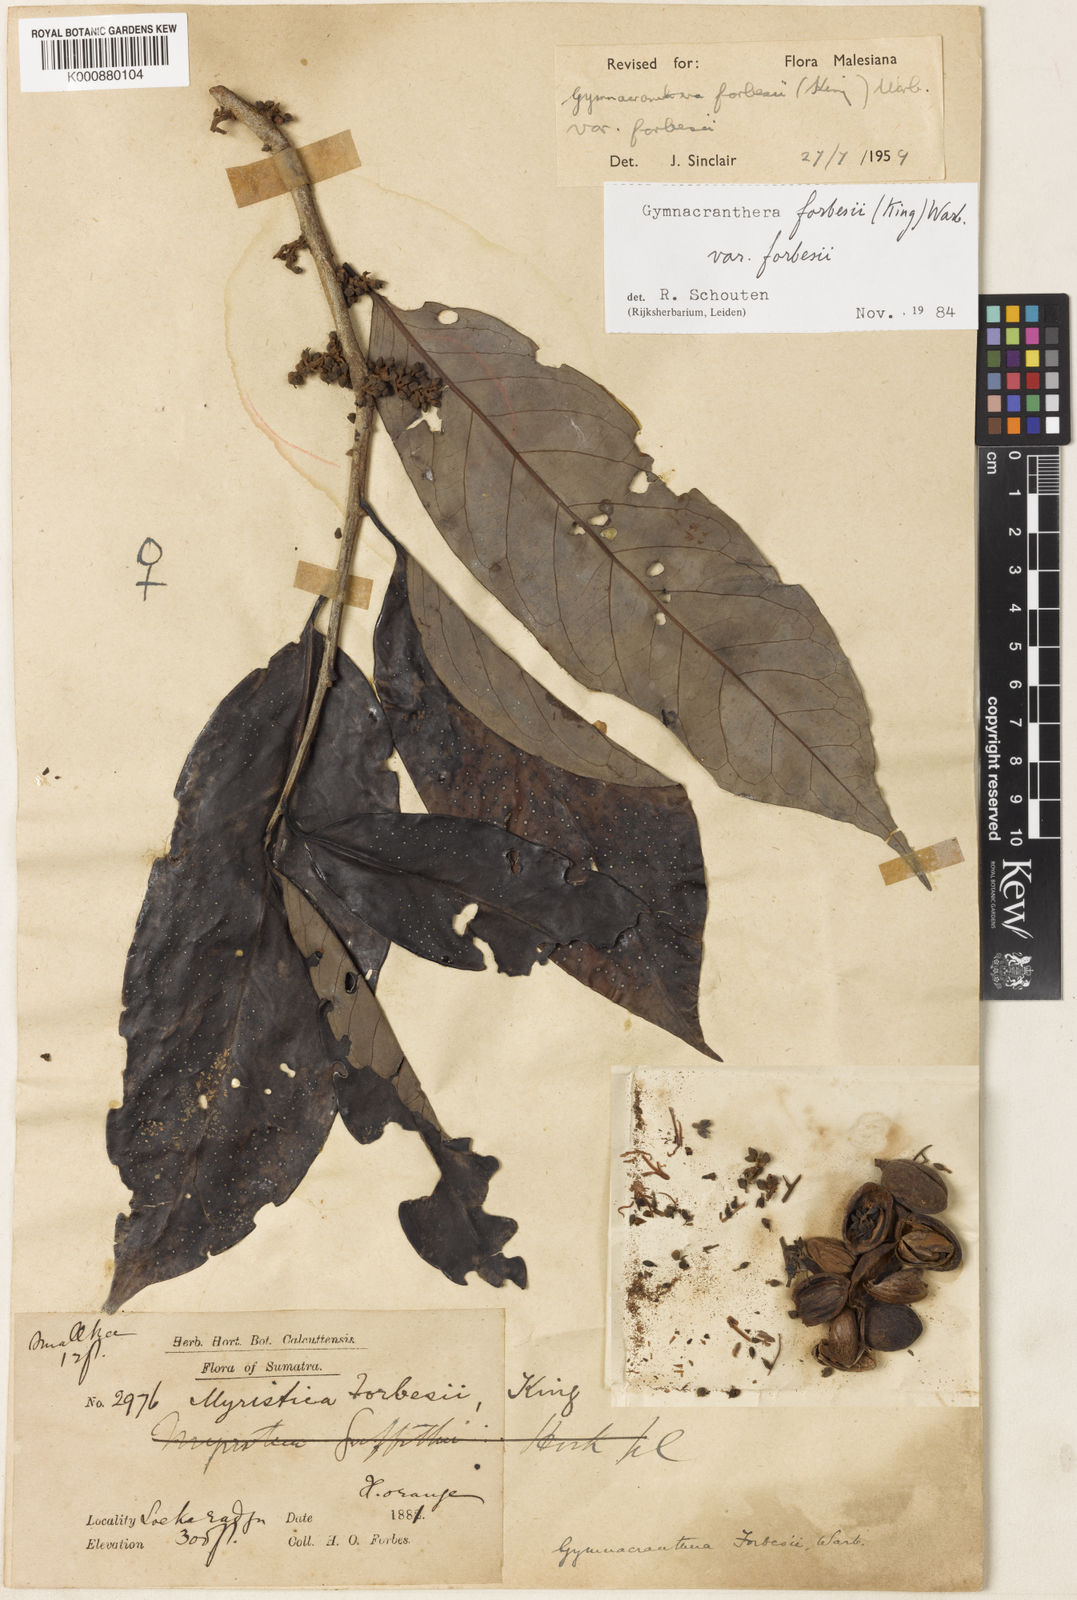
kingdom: Plantae
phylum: Tracheophyta
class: Magnoliopsida
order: Magnoliales
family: Myristicaceae
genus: Gymnacranthera
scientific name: Gymnacranthera forbesii
